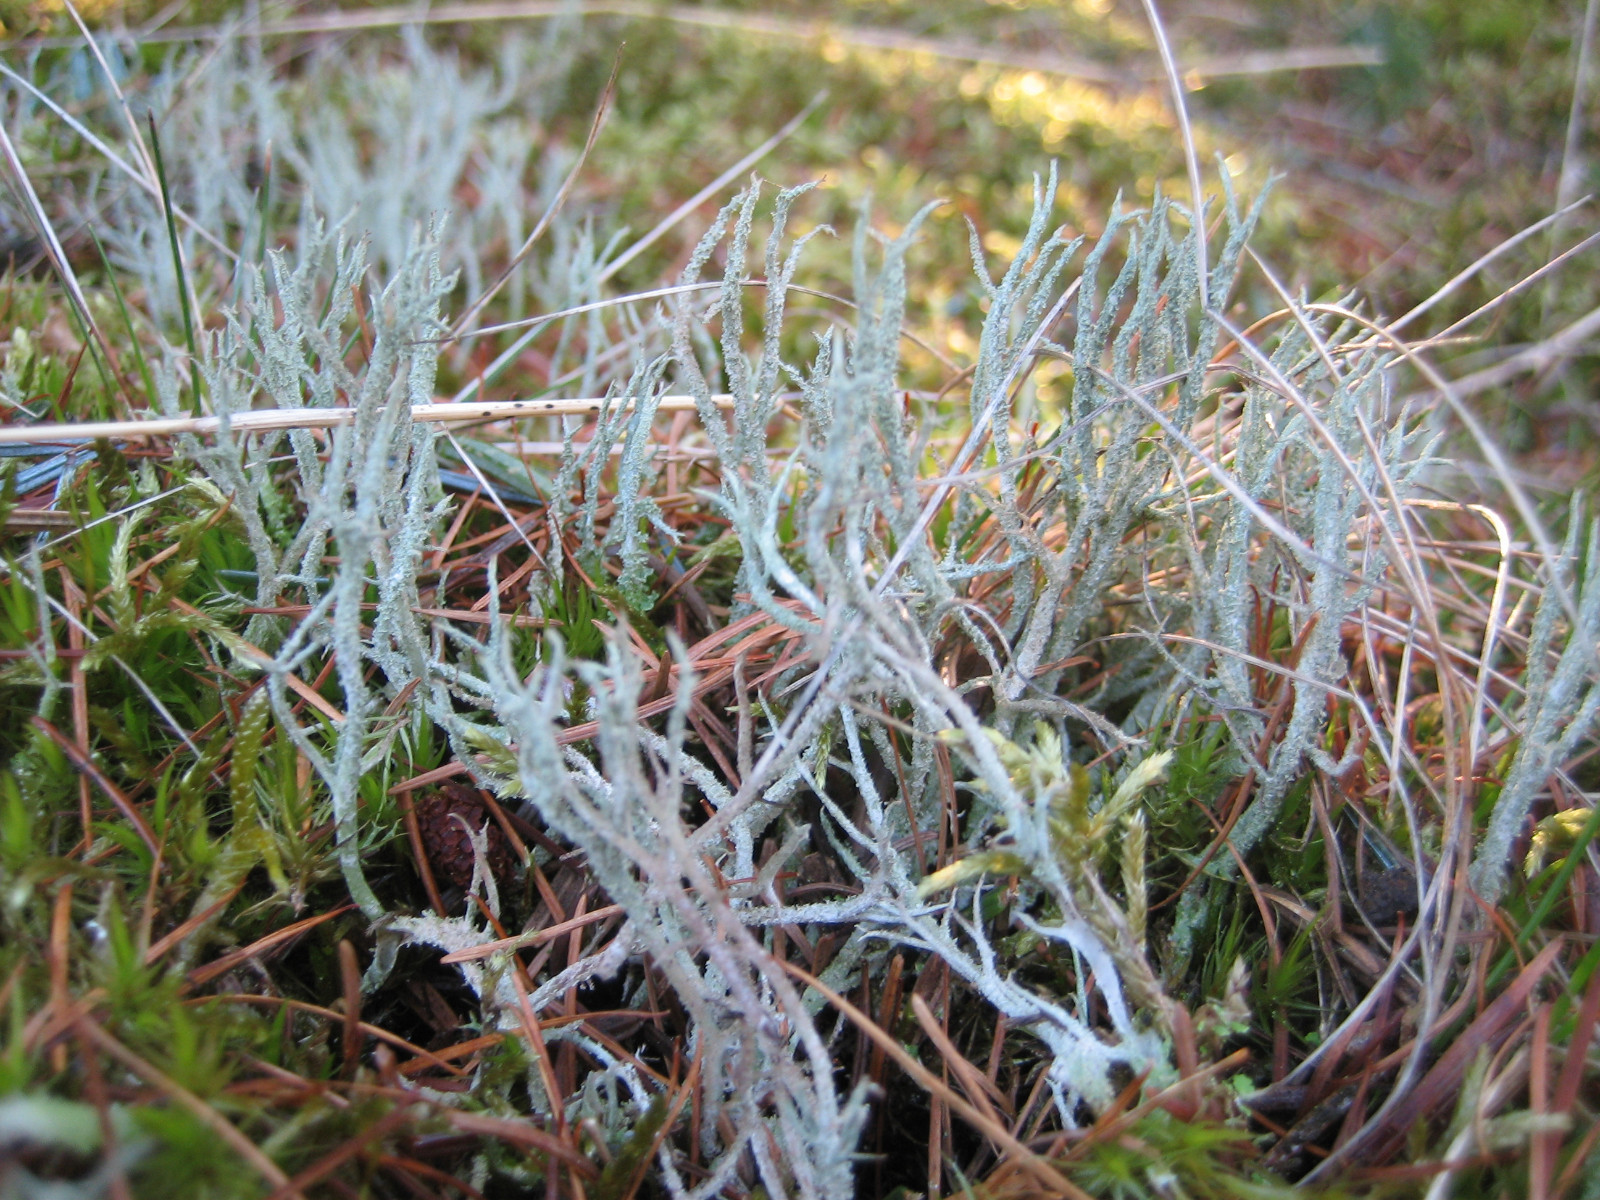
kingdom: Fungi
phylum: Ascomycota
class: Lecanoromycetes
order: Lecanorales
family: Cladoniaceae
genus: Cladonia
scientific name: Cladonia scabriuscula
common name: ru bægerlav
